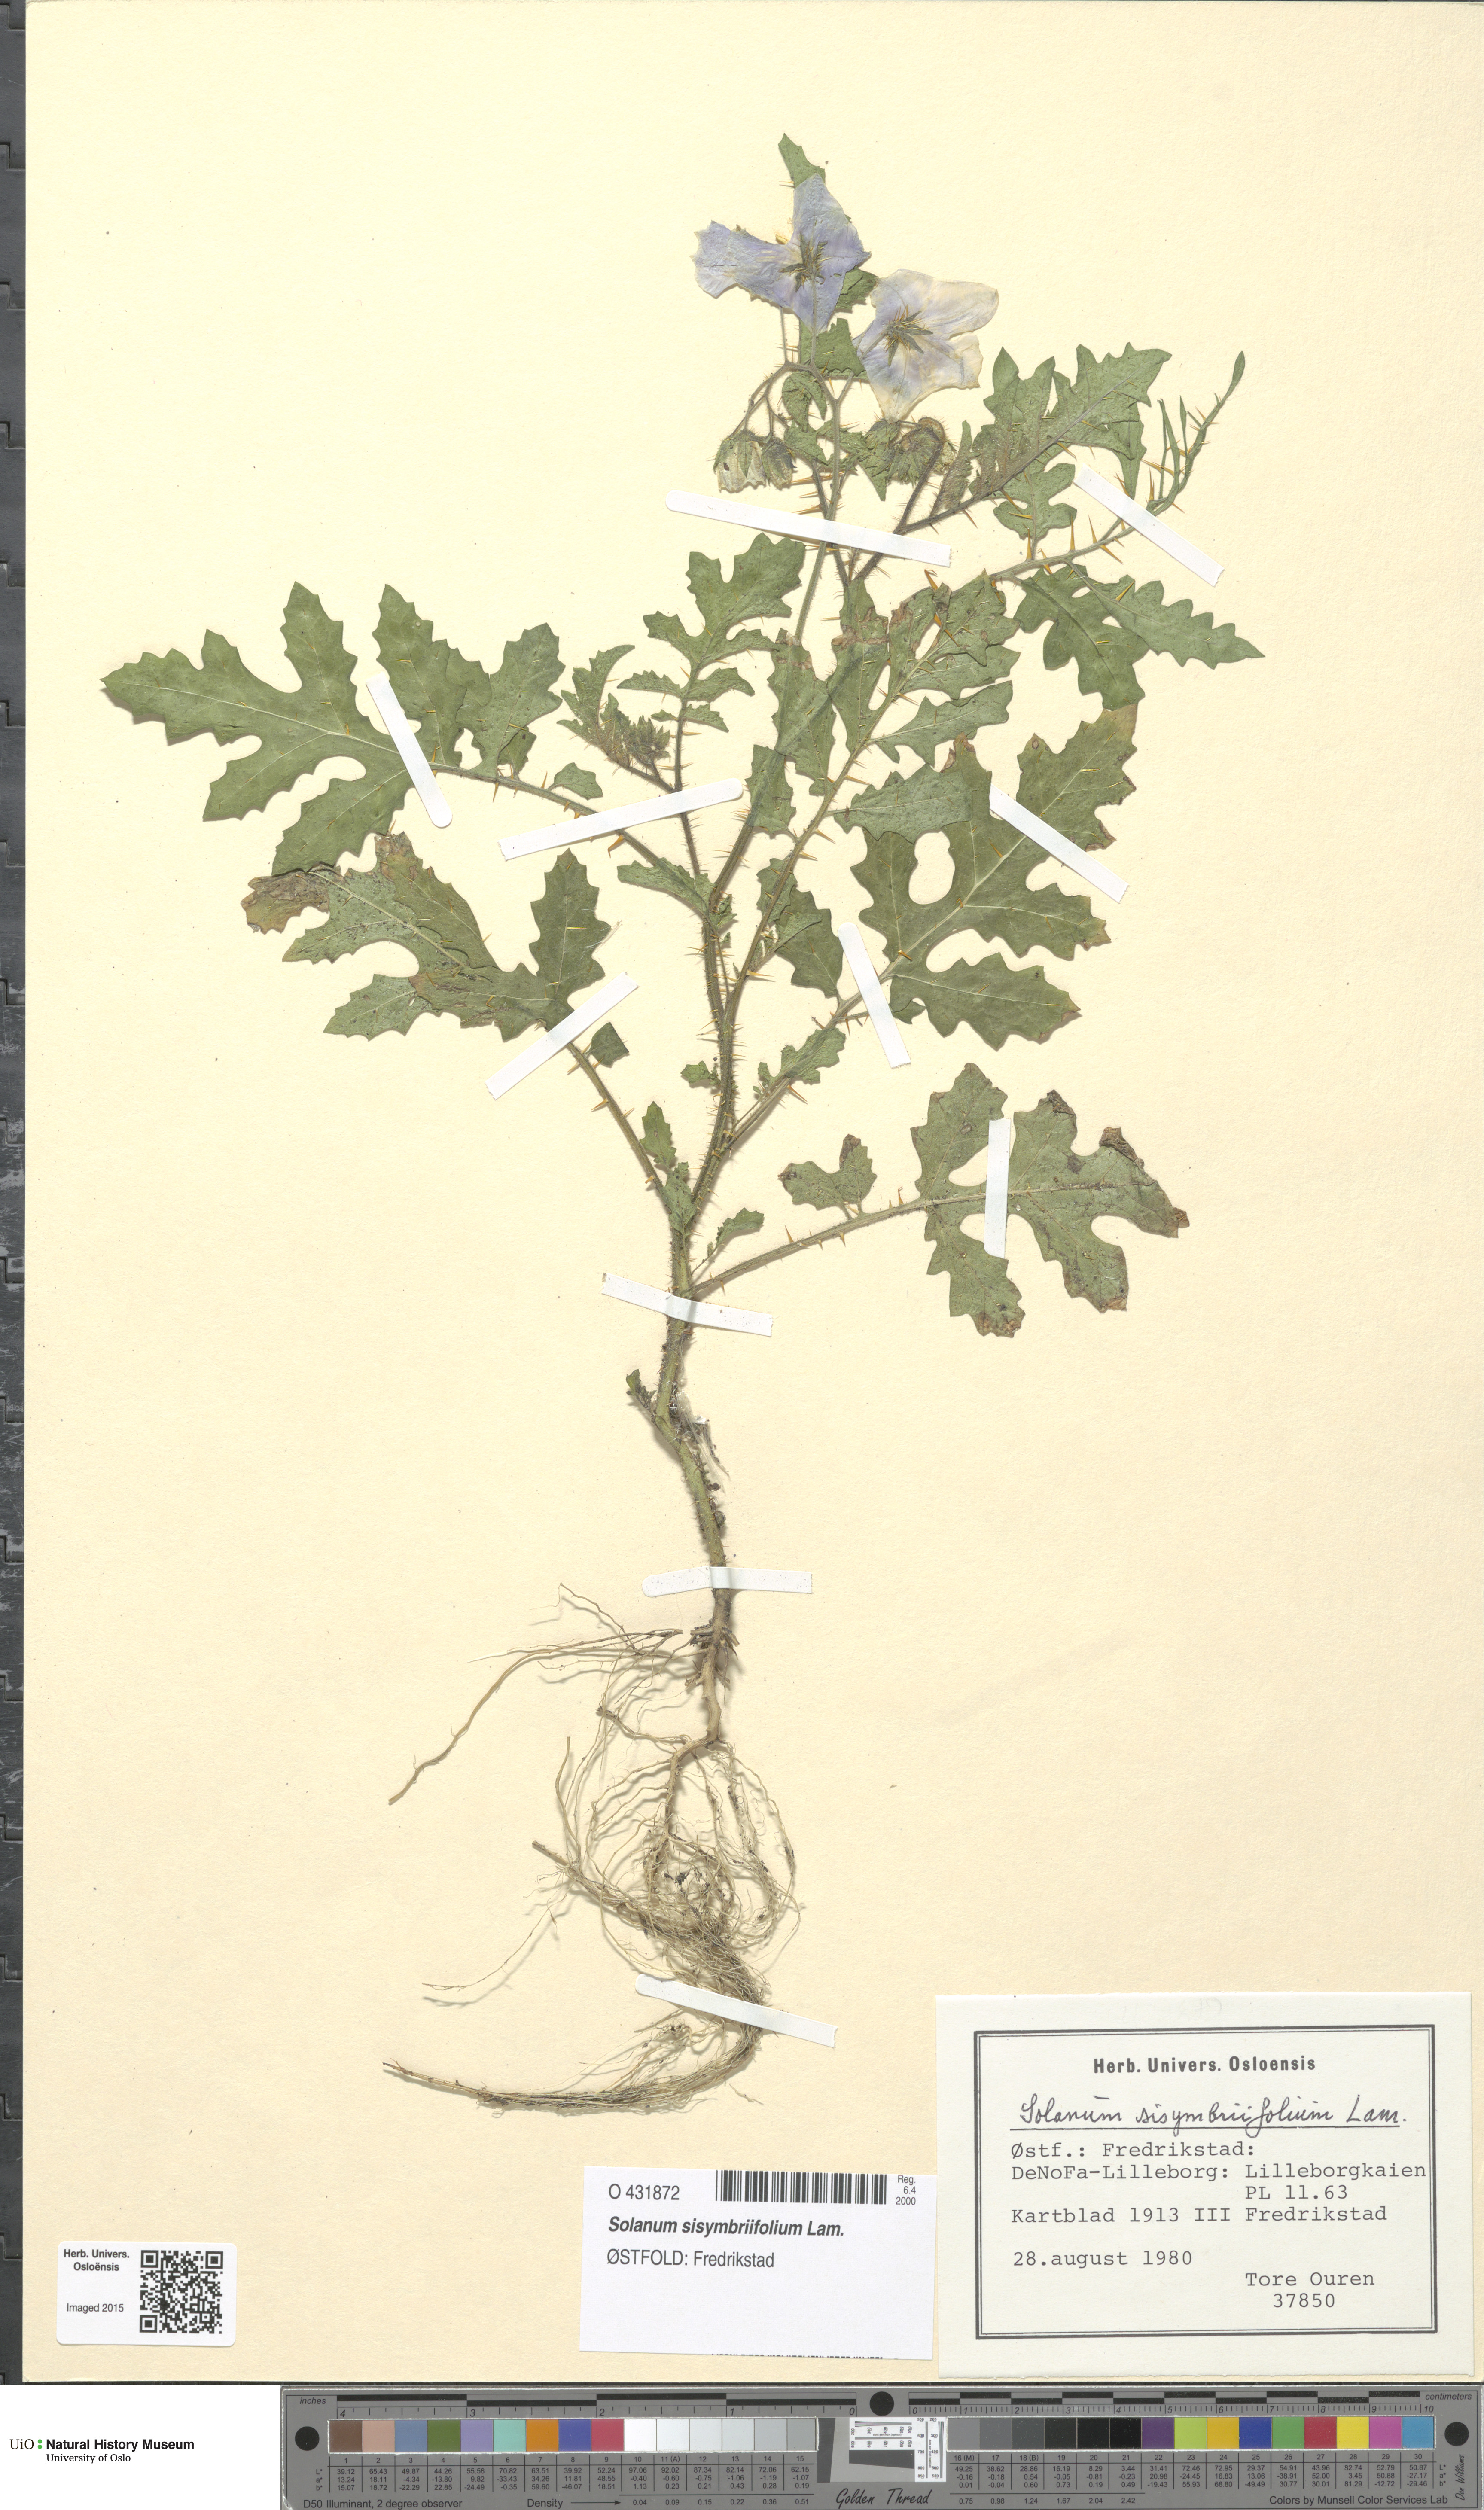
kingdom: Plantae
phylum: Tracheophyta
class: Magnoliopsida
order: Solanales
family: Solanaceae
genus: Solanum
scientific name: Solanum sisymbriifolium
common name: Red buffalo-bur
